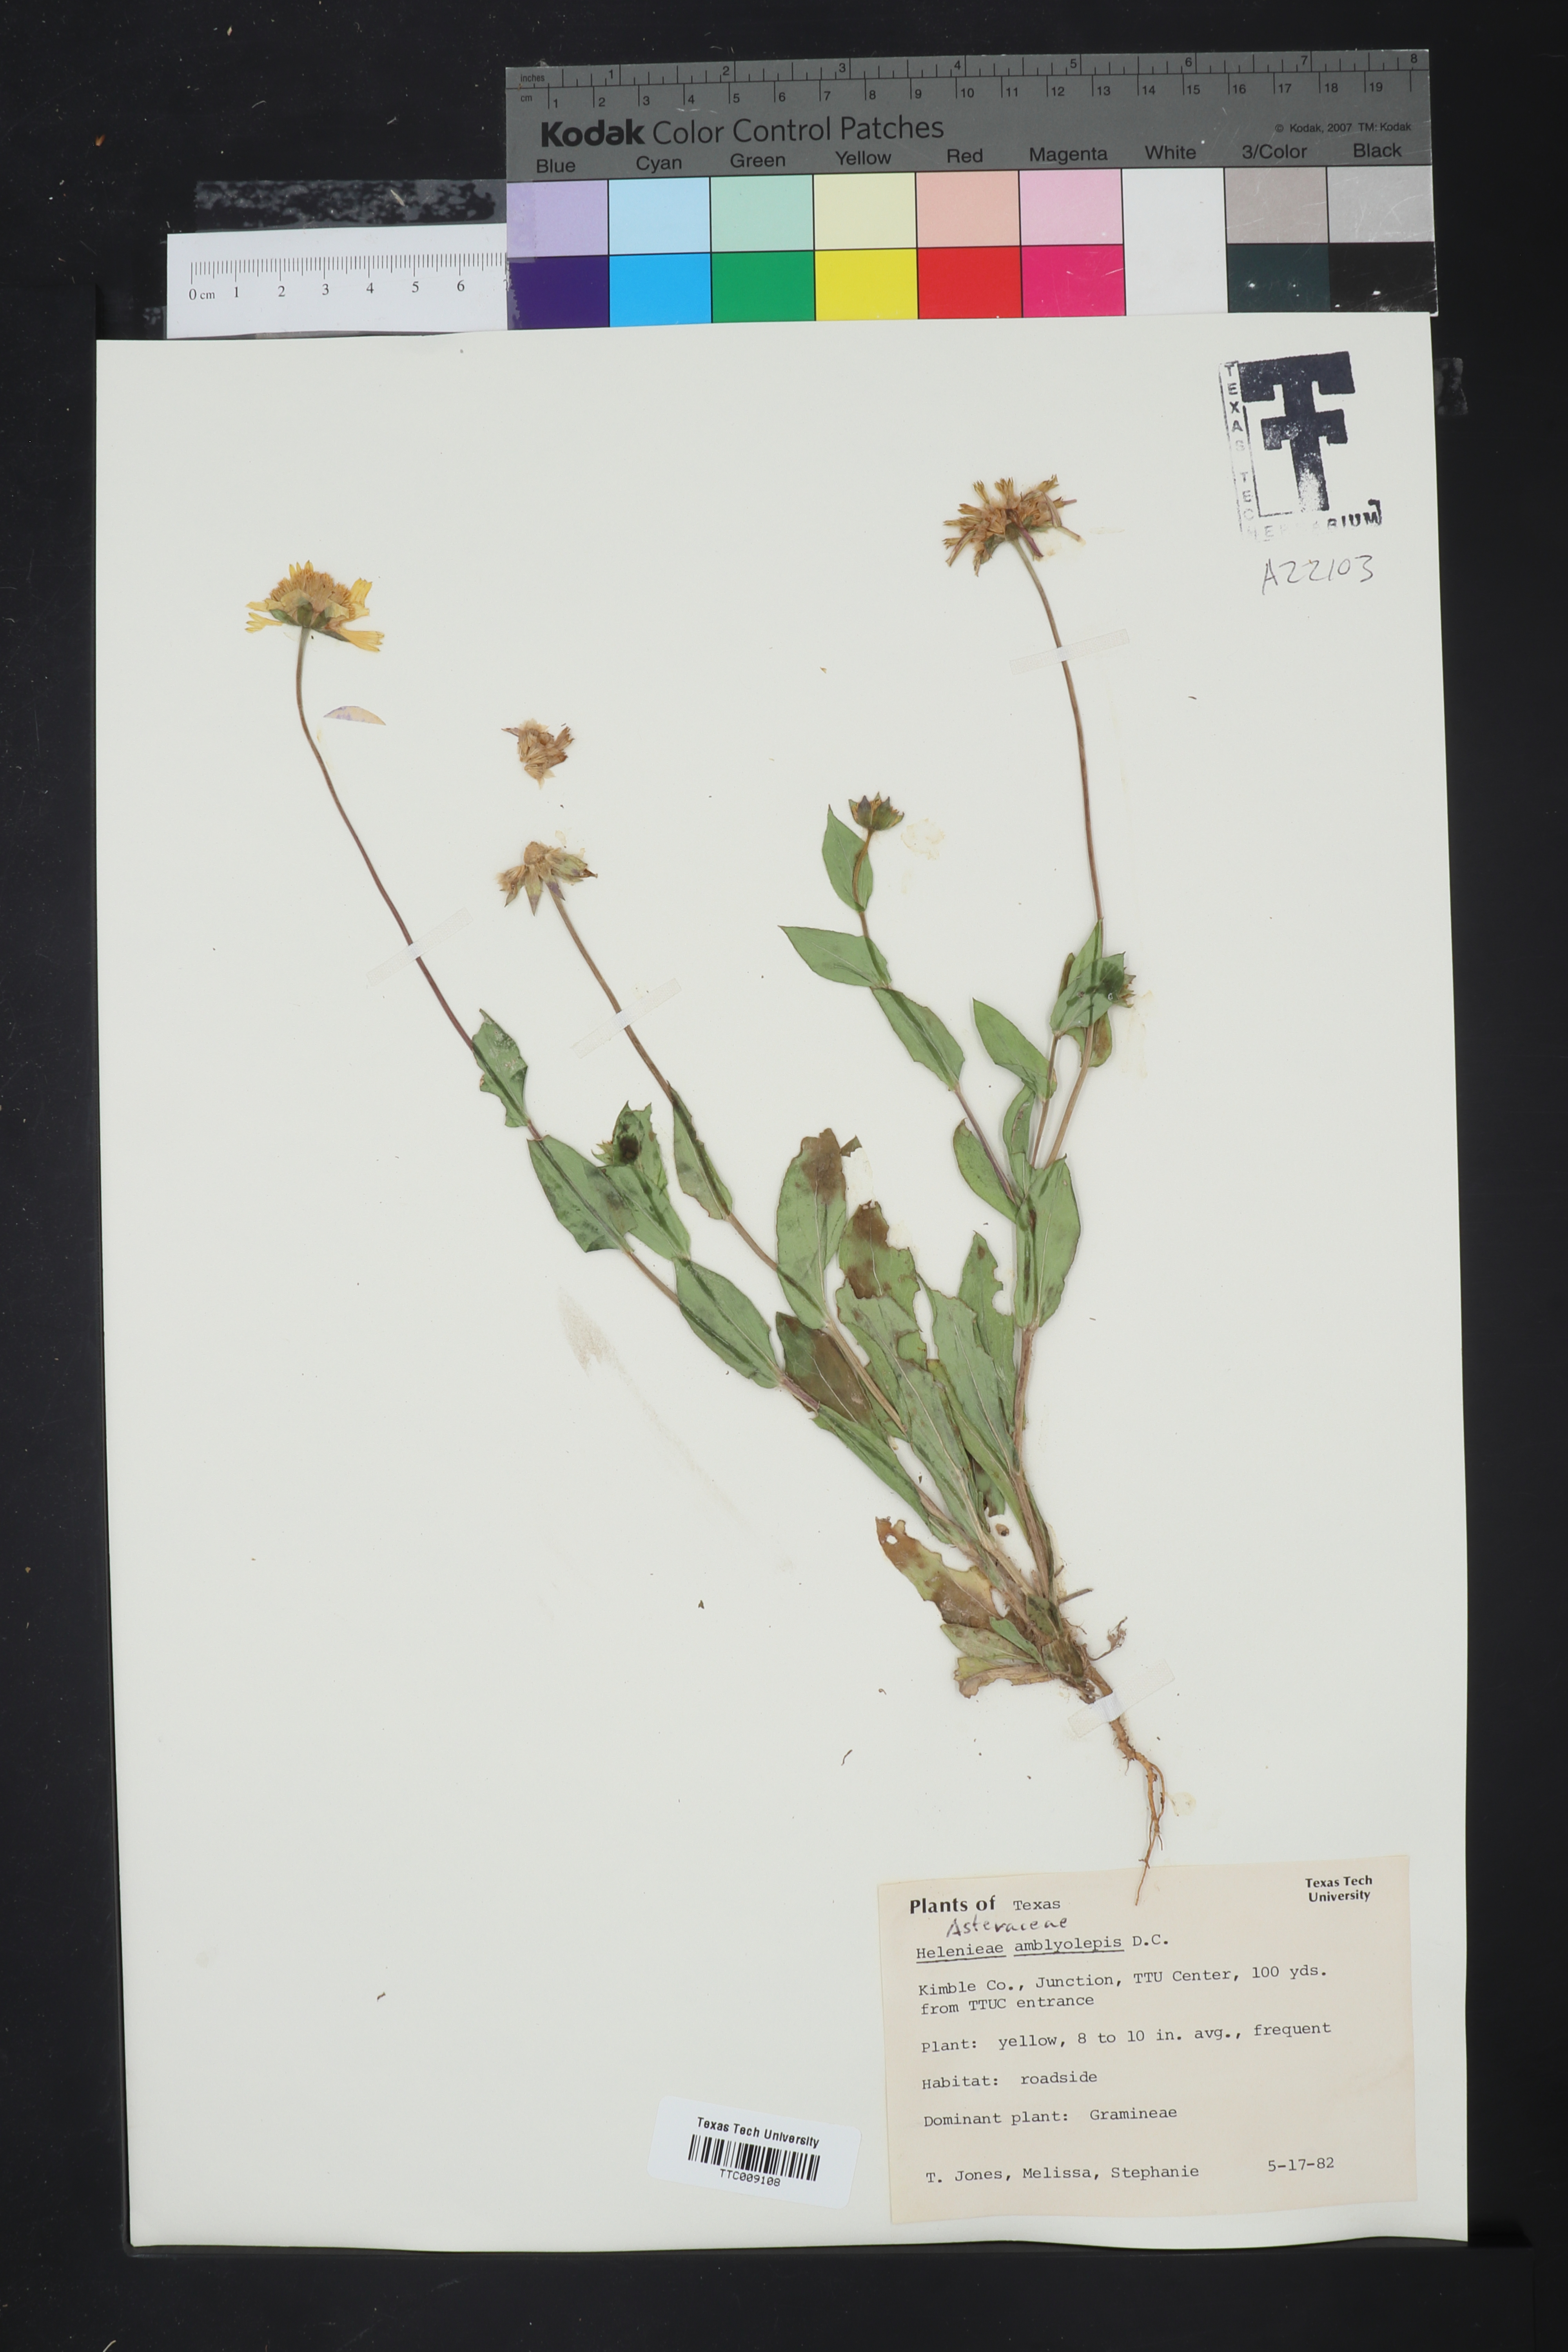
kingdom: Plantae
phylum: Tracheophyta
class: Magnoliopsida
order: Asterales
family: Asteraceae
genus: Helenium
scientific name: Helenium
